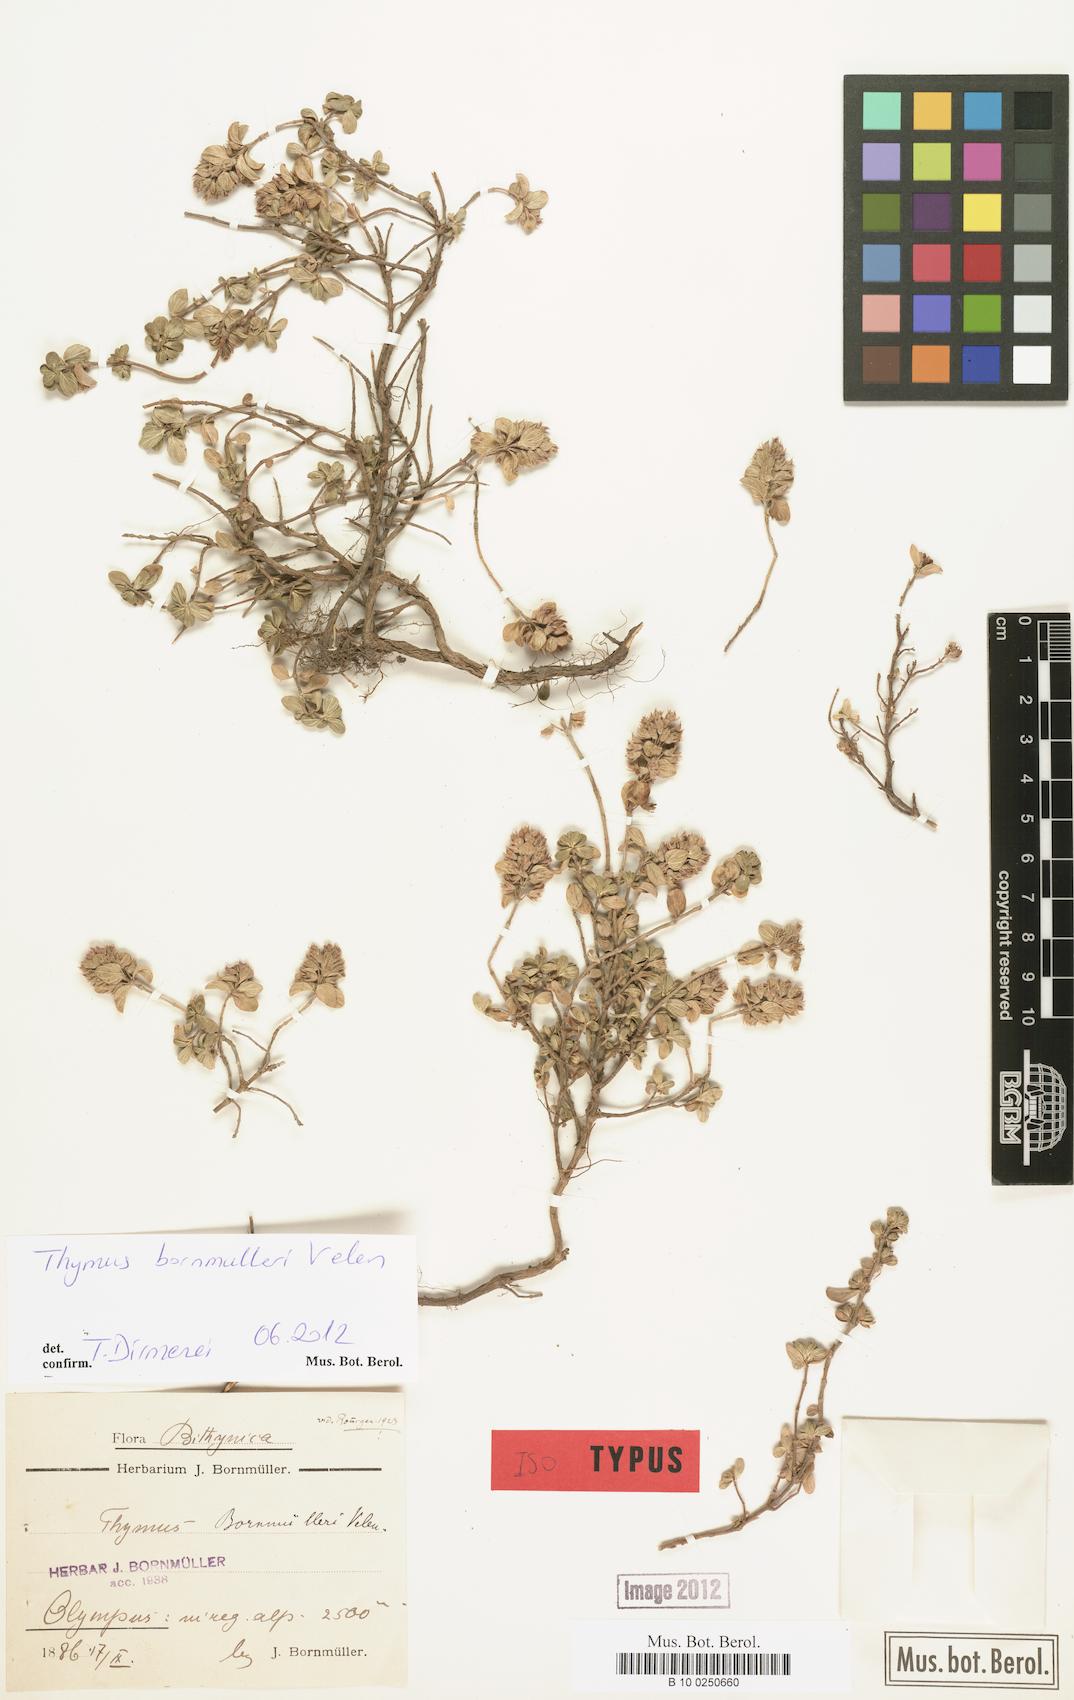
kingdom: Plantae
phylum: Tracheophyta
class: Magnoliopsida
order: Lamiales
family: Lamiaceae
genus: Thymus
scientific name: Thymus bornmuelleri
